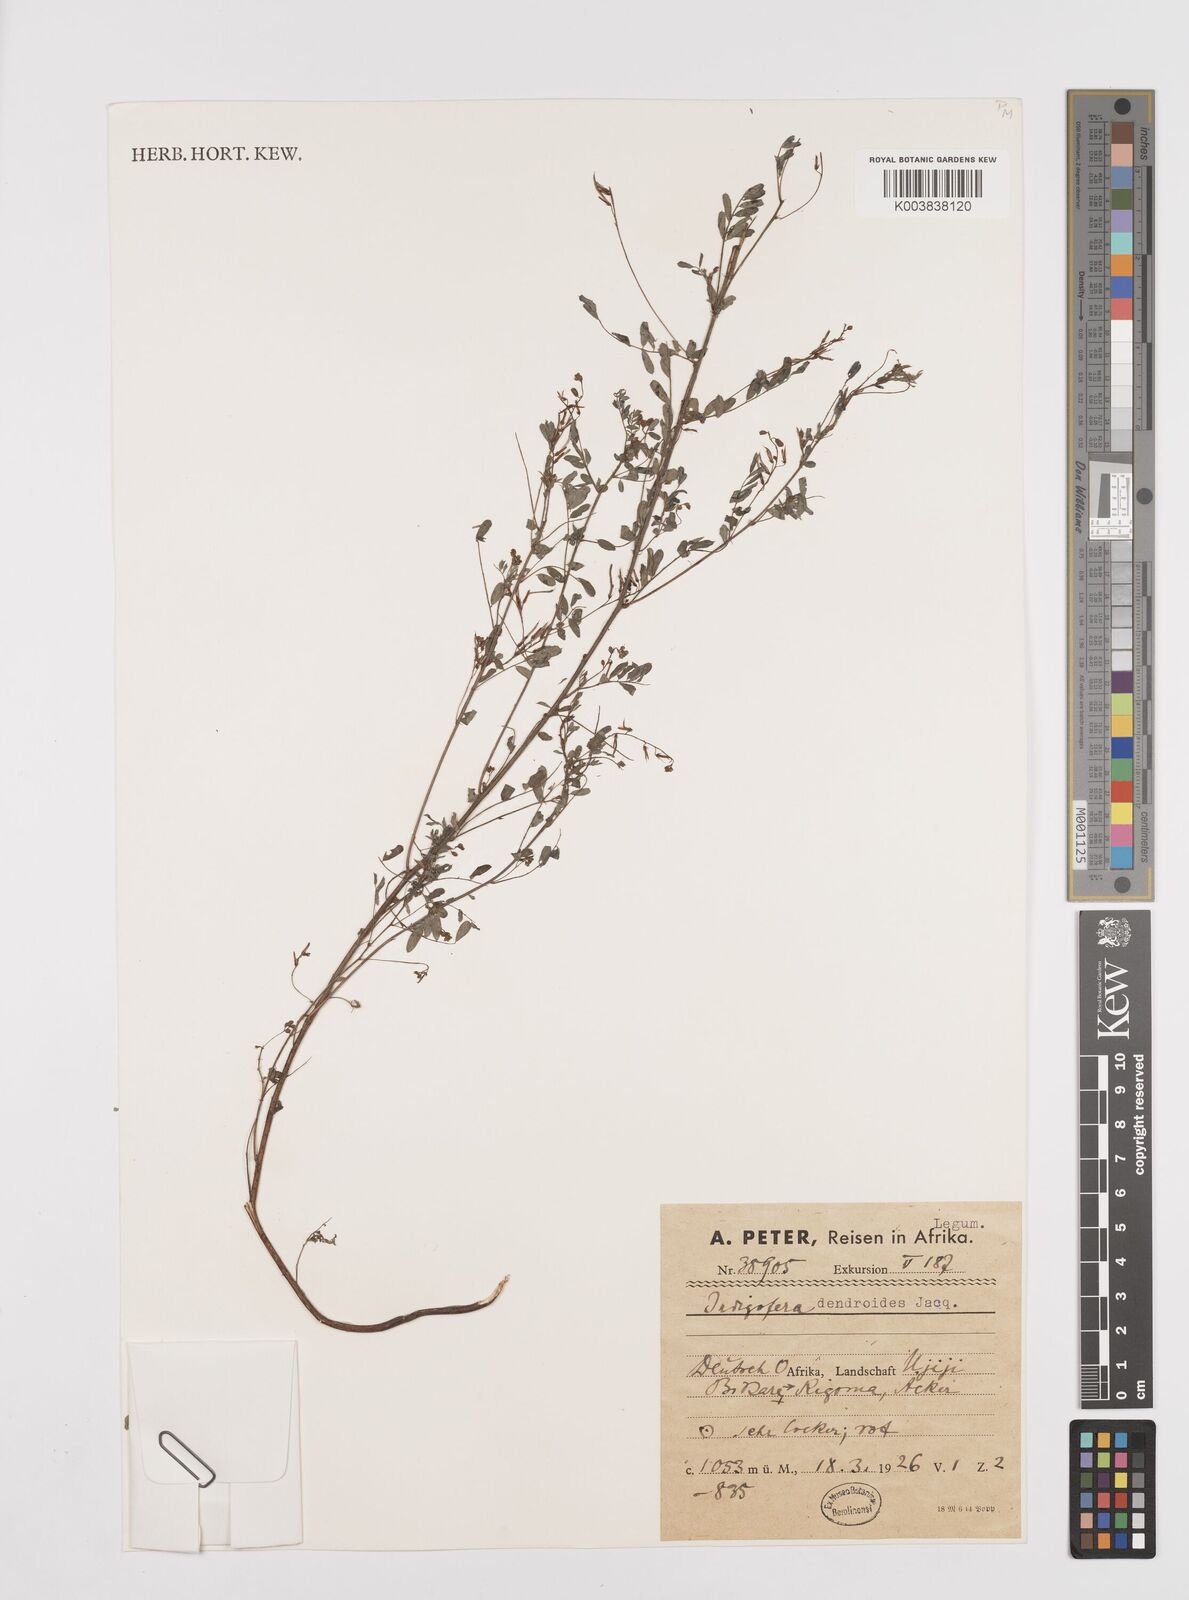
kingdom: Plantae
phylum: Tracheophyta
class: Magnoliopsida
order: Fabales
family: Fabaceae
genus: Indigofera
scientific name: Indigofera dendroides
